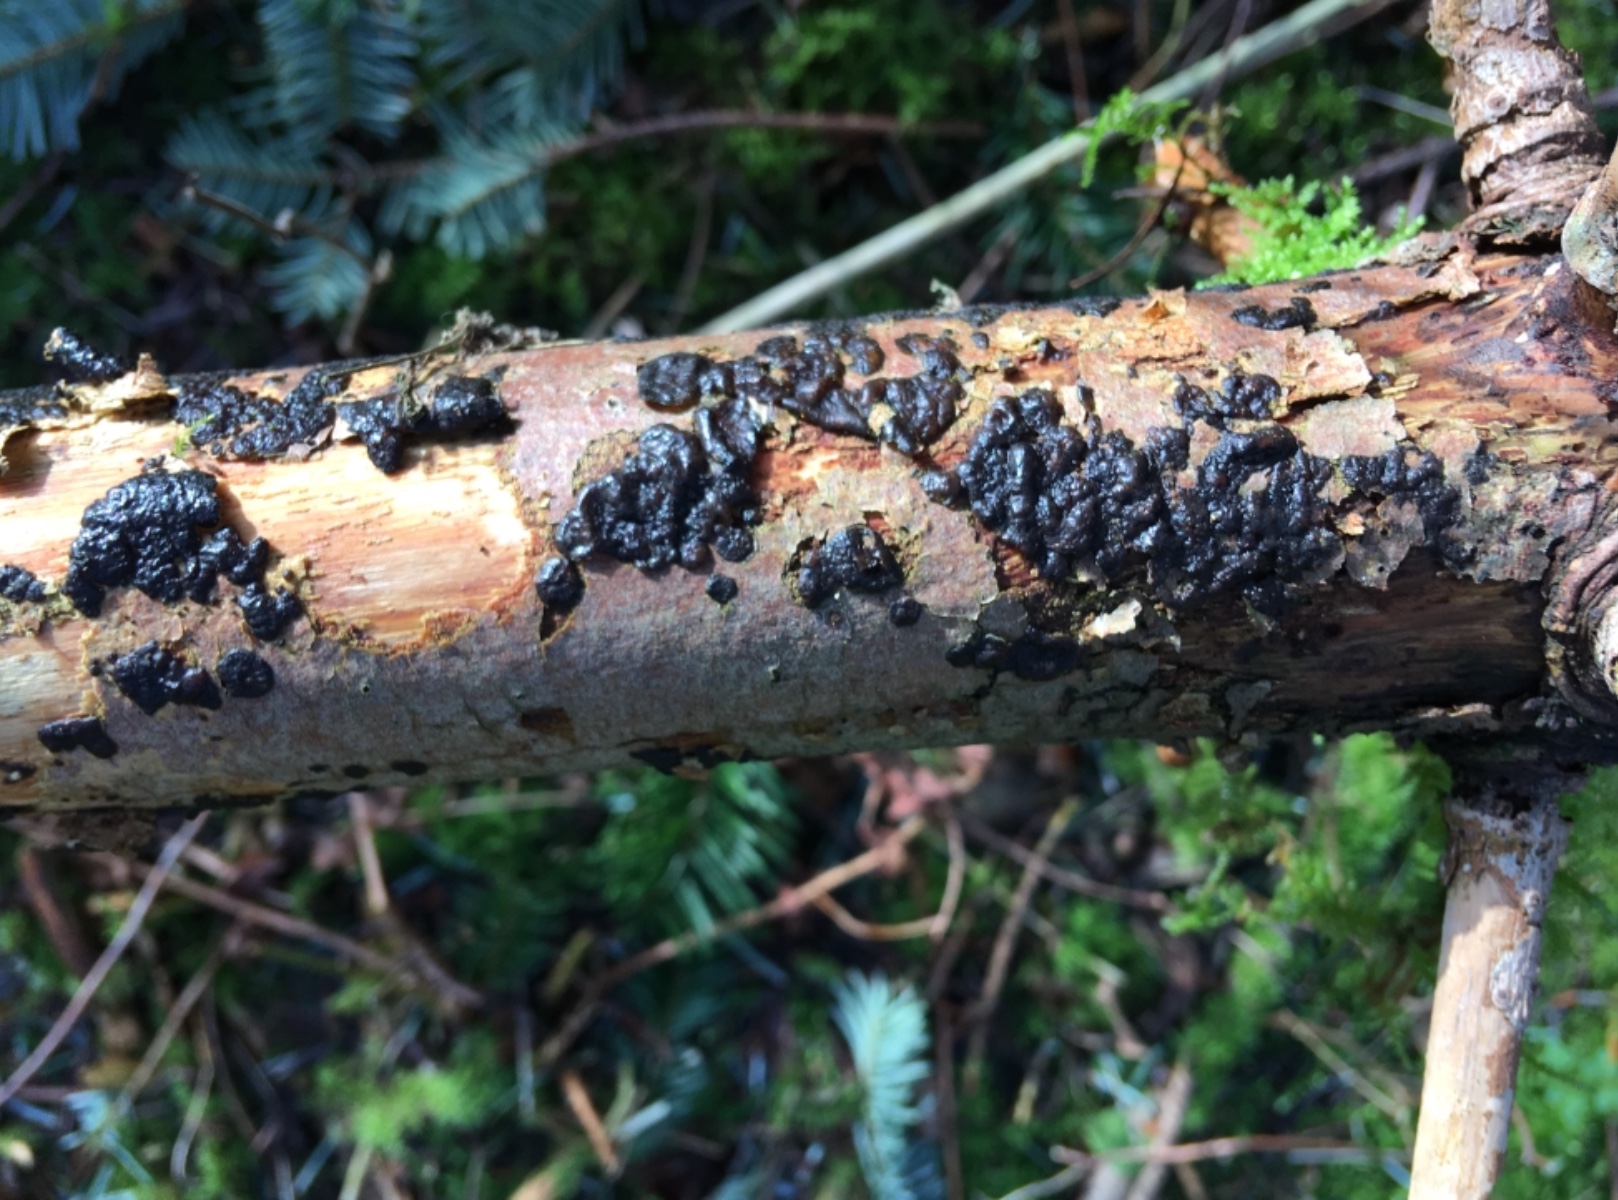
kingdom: Fungi
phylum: Basidiomycota
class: Agaricomycetes
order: Auriculariales
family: Auriculariaceae
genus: Exidia
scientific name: Exidia pithya
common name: gran-bævretop
